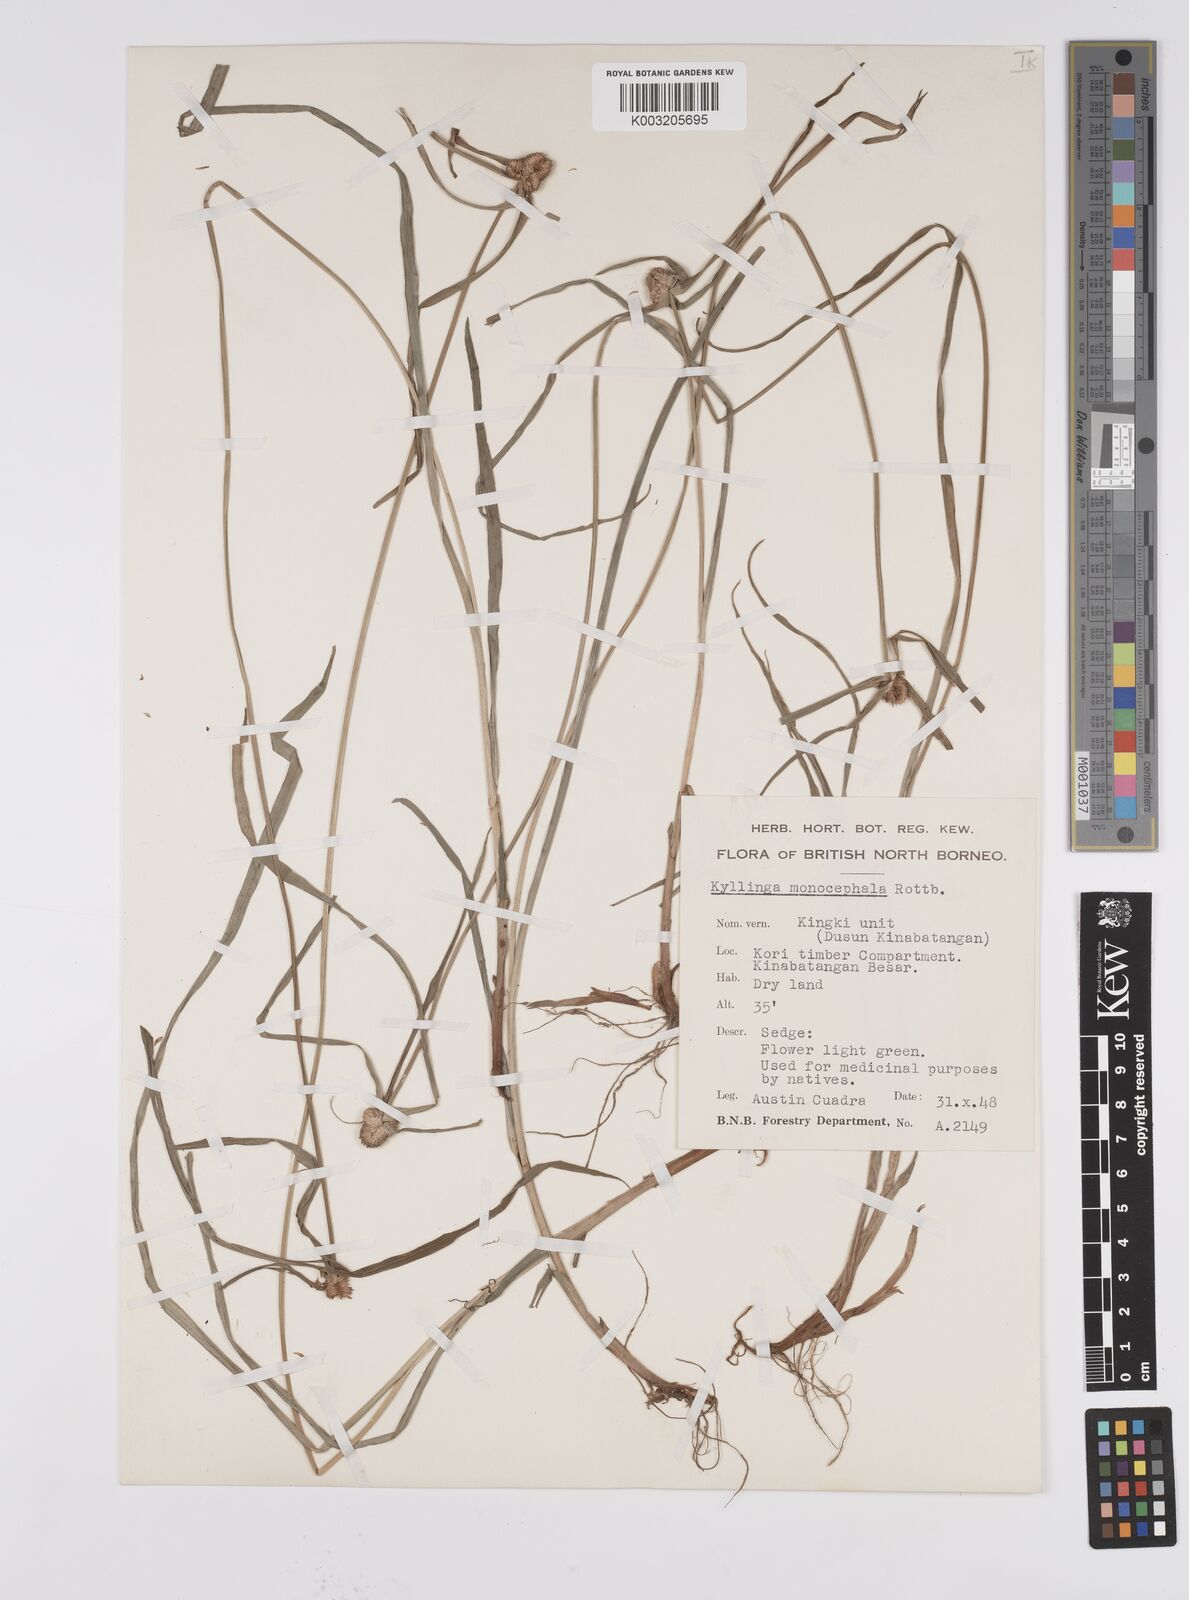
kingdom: Plantae
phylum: Tracheophyta
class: Liliopsida
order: Poales
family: Cyperaceae
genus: Cyperus
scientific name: Cyperus nemoralis
